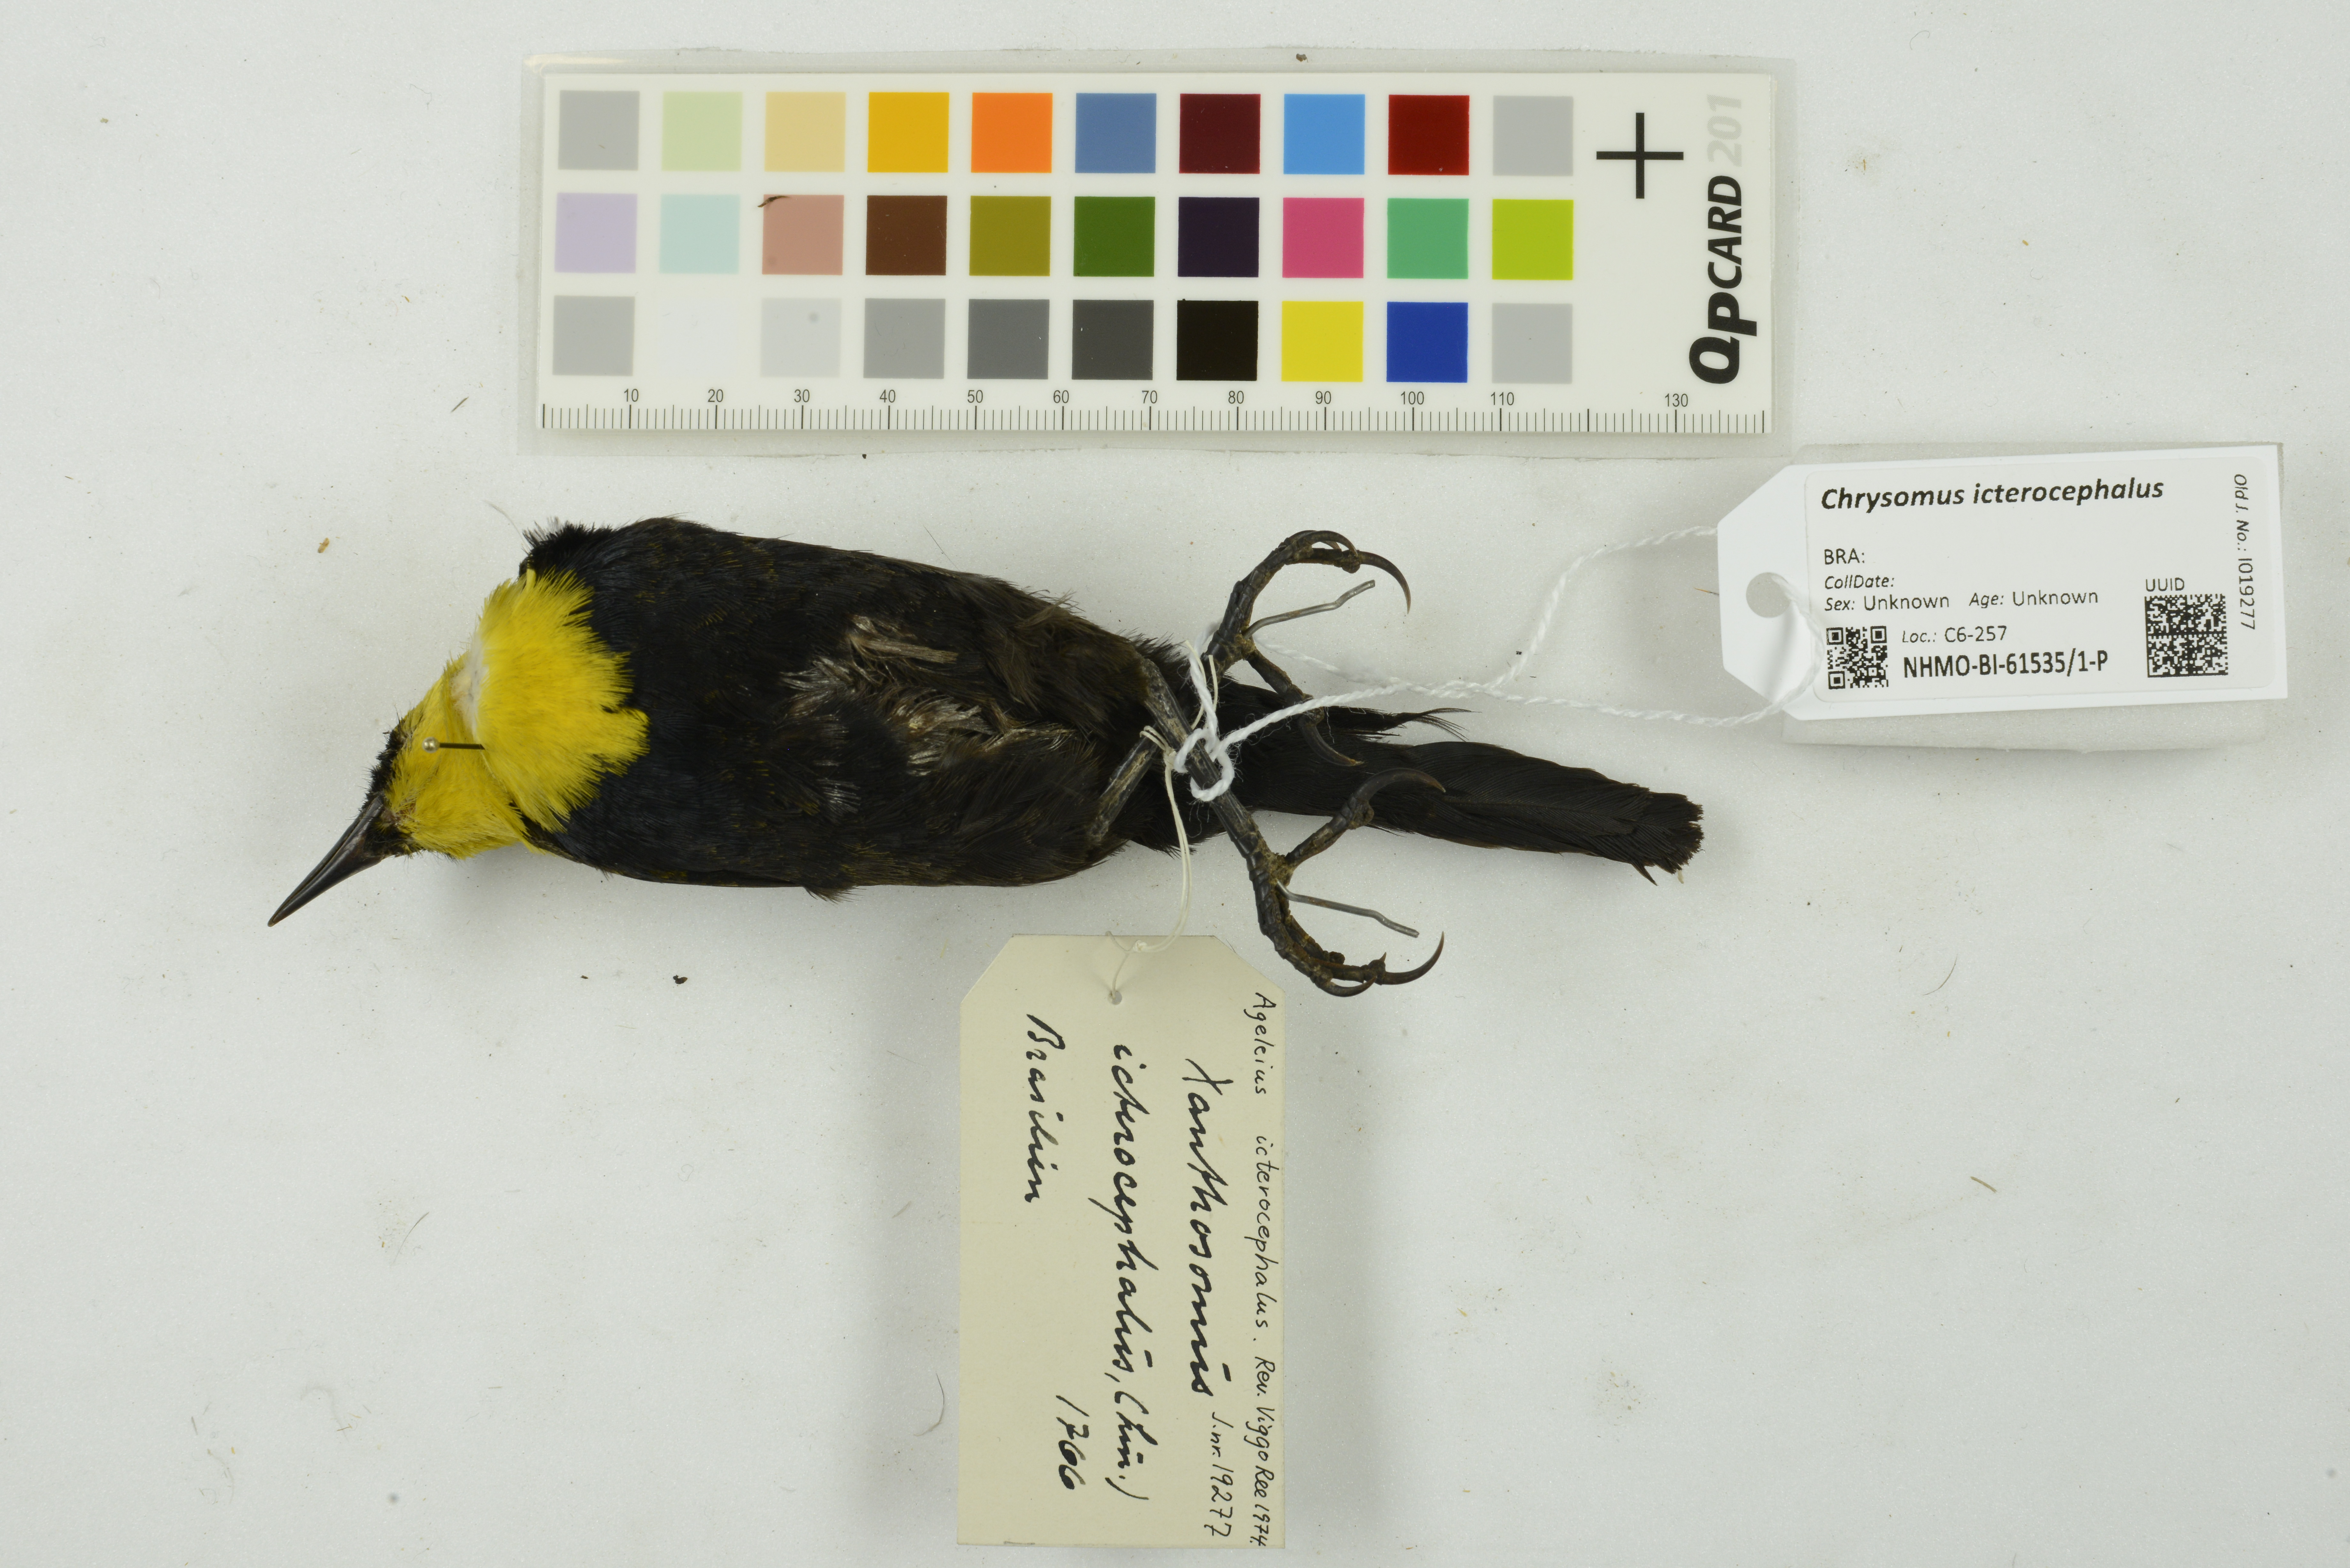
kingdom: Animalia
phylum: Chordata
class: Aves
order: Passeriformes
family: Icteridae
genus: Chrysomus
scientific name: Chrysomus icterocephalus
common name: Yellow-hooded blackbird
